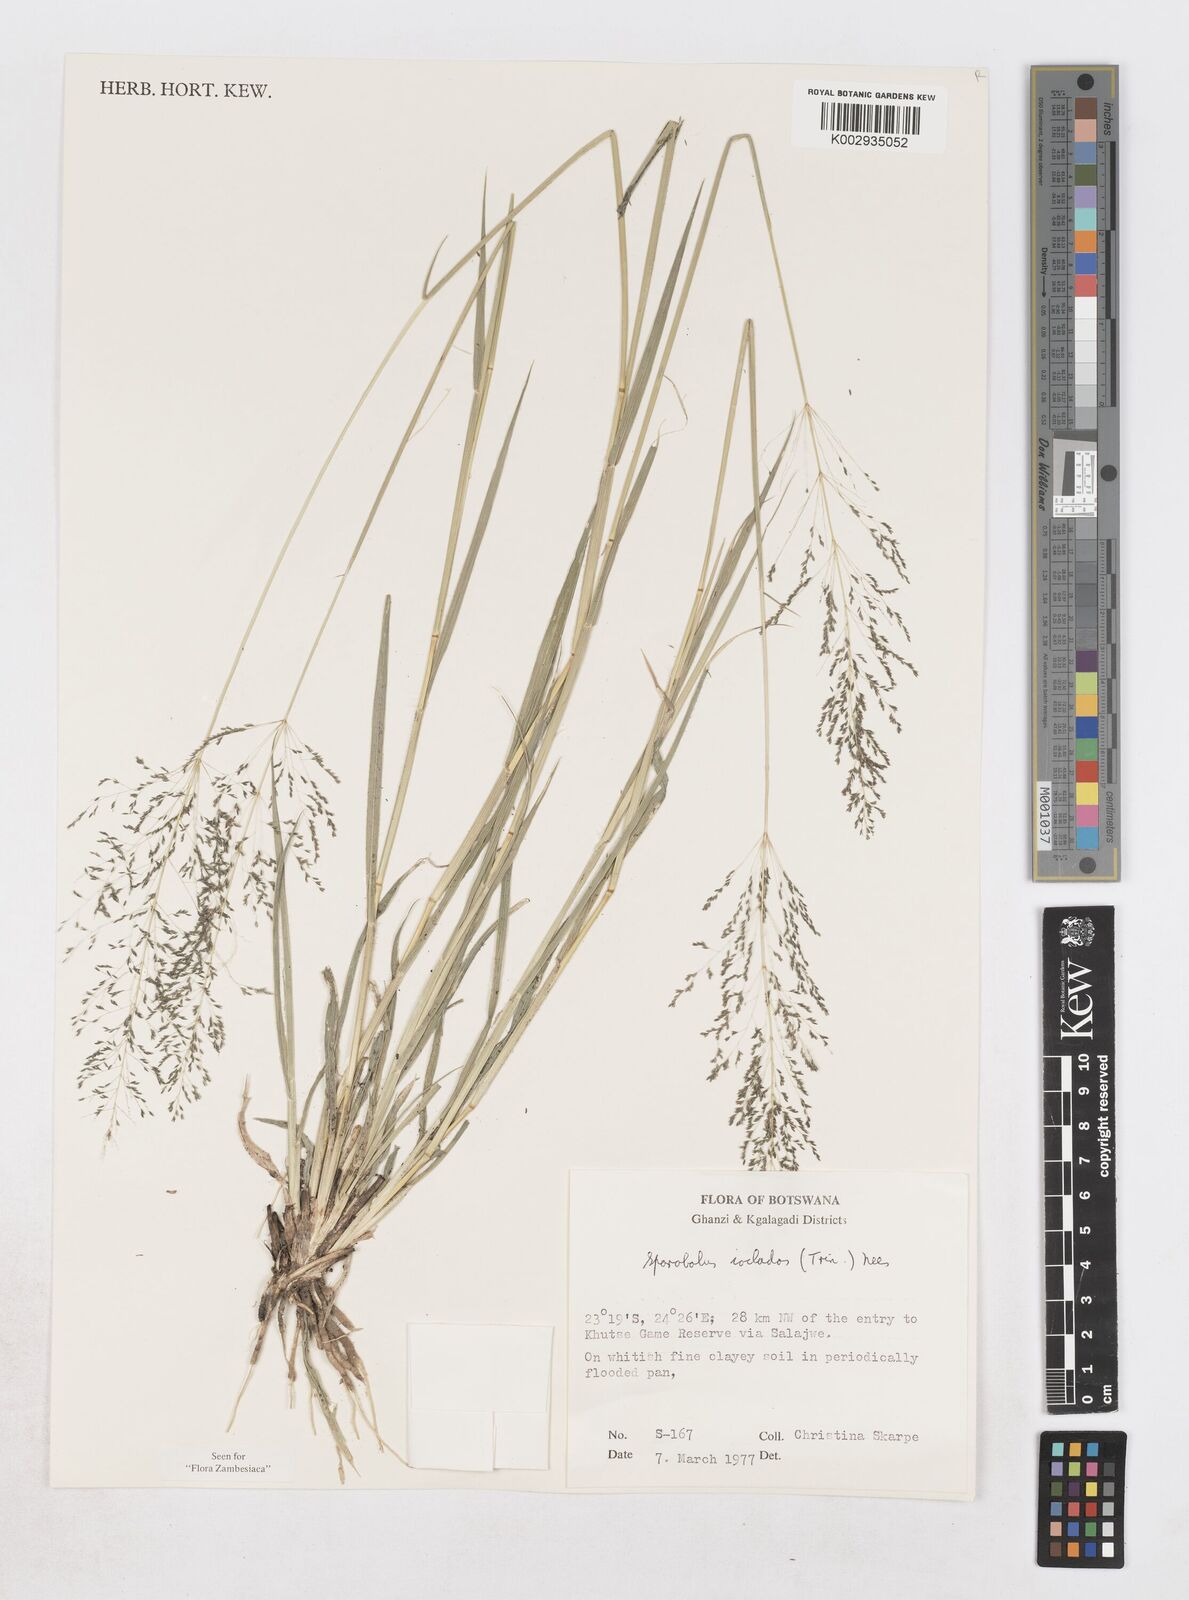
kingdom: Plantae
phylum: Tracheophyta
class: Liliopsida
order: Poales
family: Poaceae
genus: Sporobolus
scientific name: Sporobolus ioclados
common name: Pan dropseed
